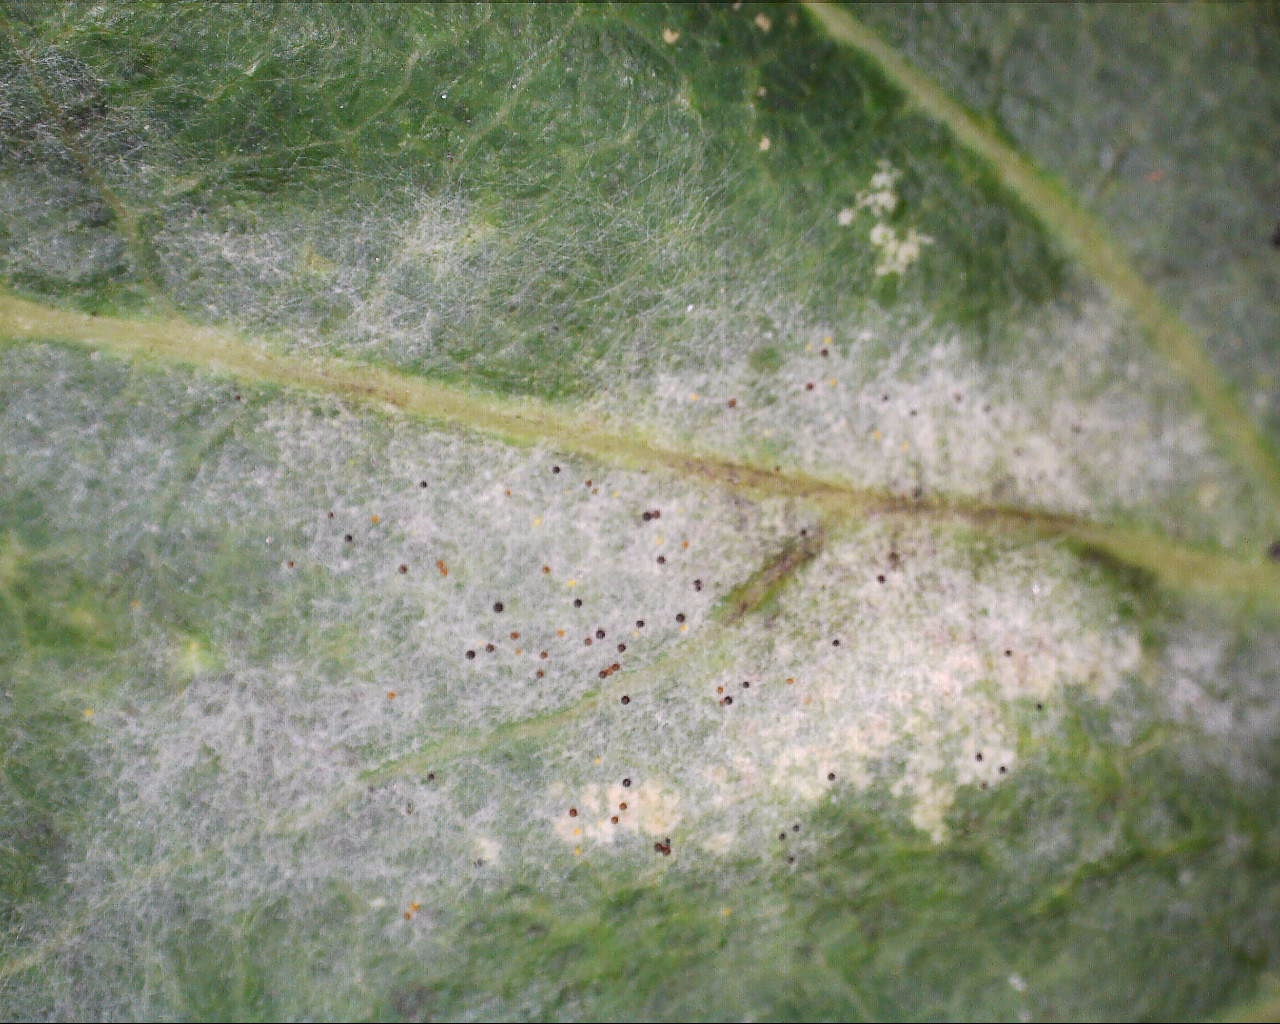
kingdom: Fungi
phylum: Ascomycota
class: Leotiomycetes
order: Helotiales
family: Erysiphaceae
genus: Erysiphe
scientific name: Erysiphe alphitoides
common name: ege-meldug
